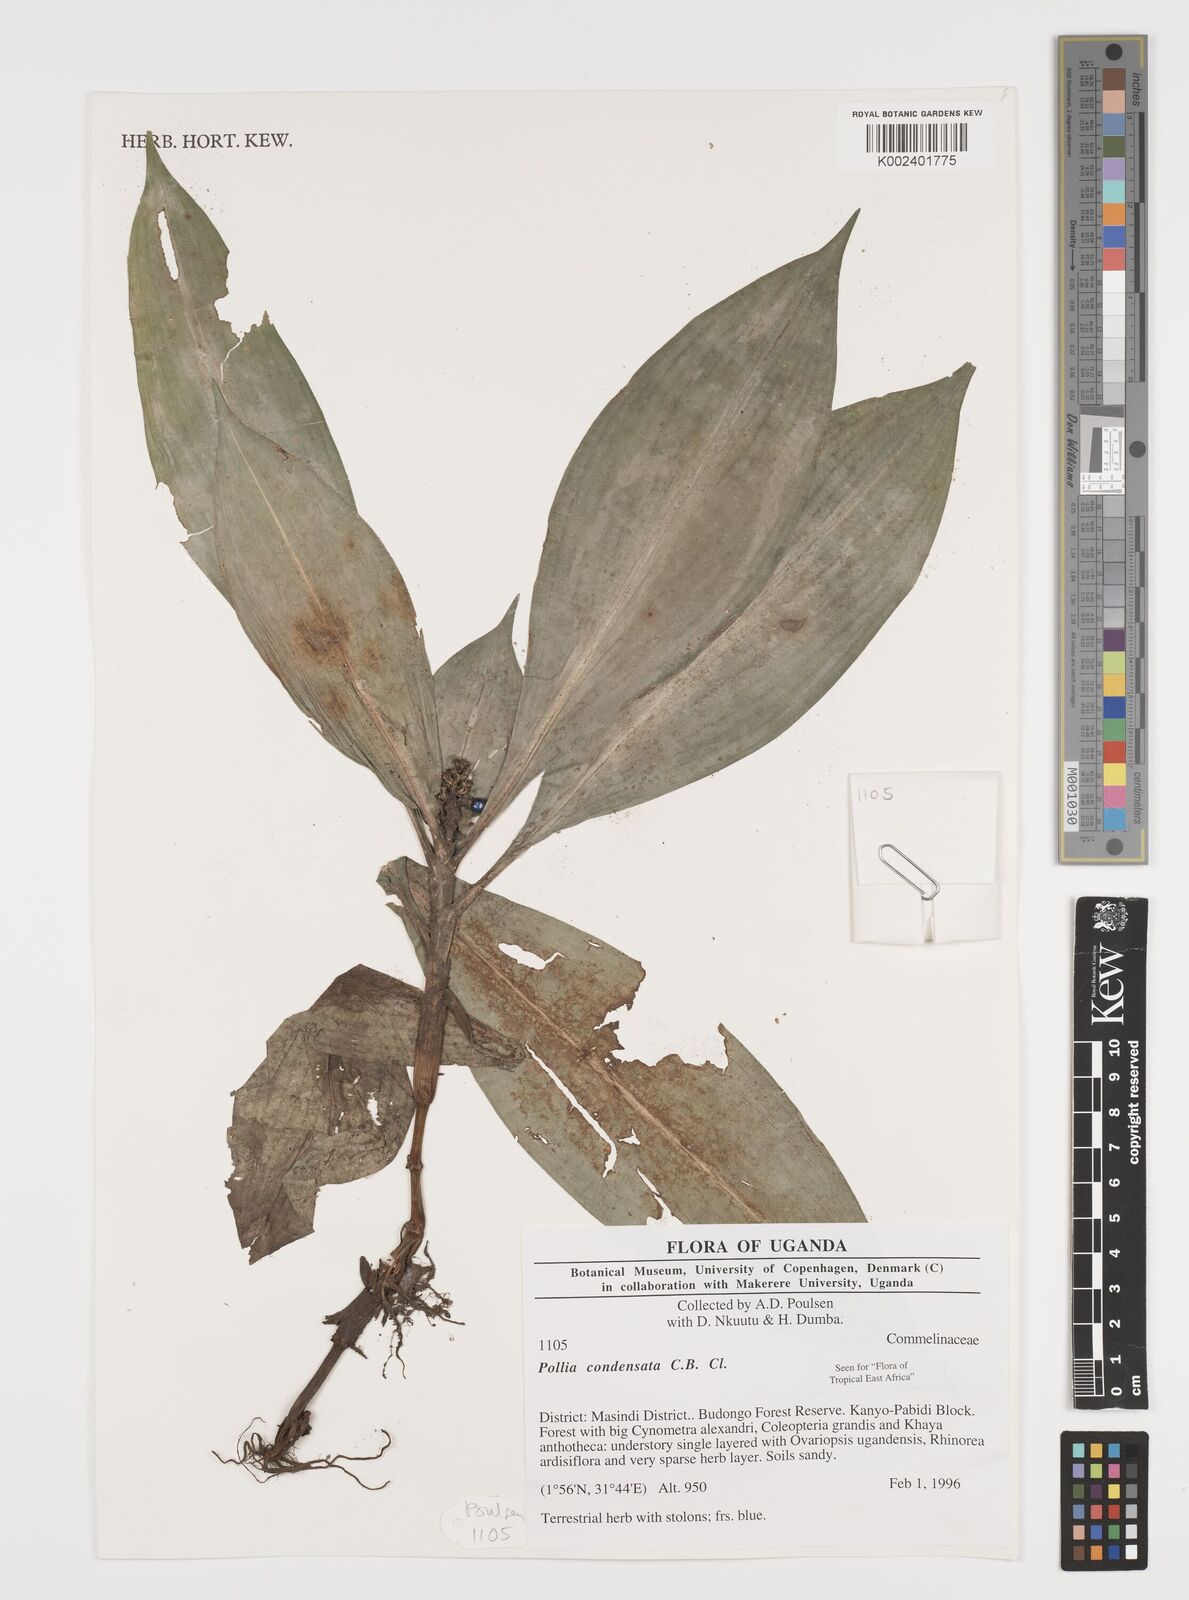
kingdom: Plantae
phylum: Tracheophyta
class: Liliopsida
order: Commelinales
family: Commelinaceae
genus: Pollia
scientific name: Pollia condensata
